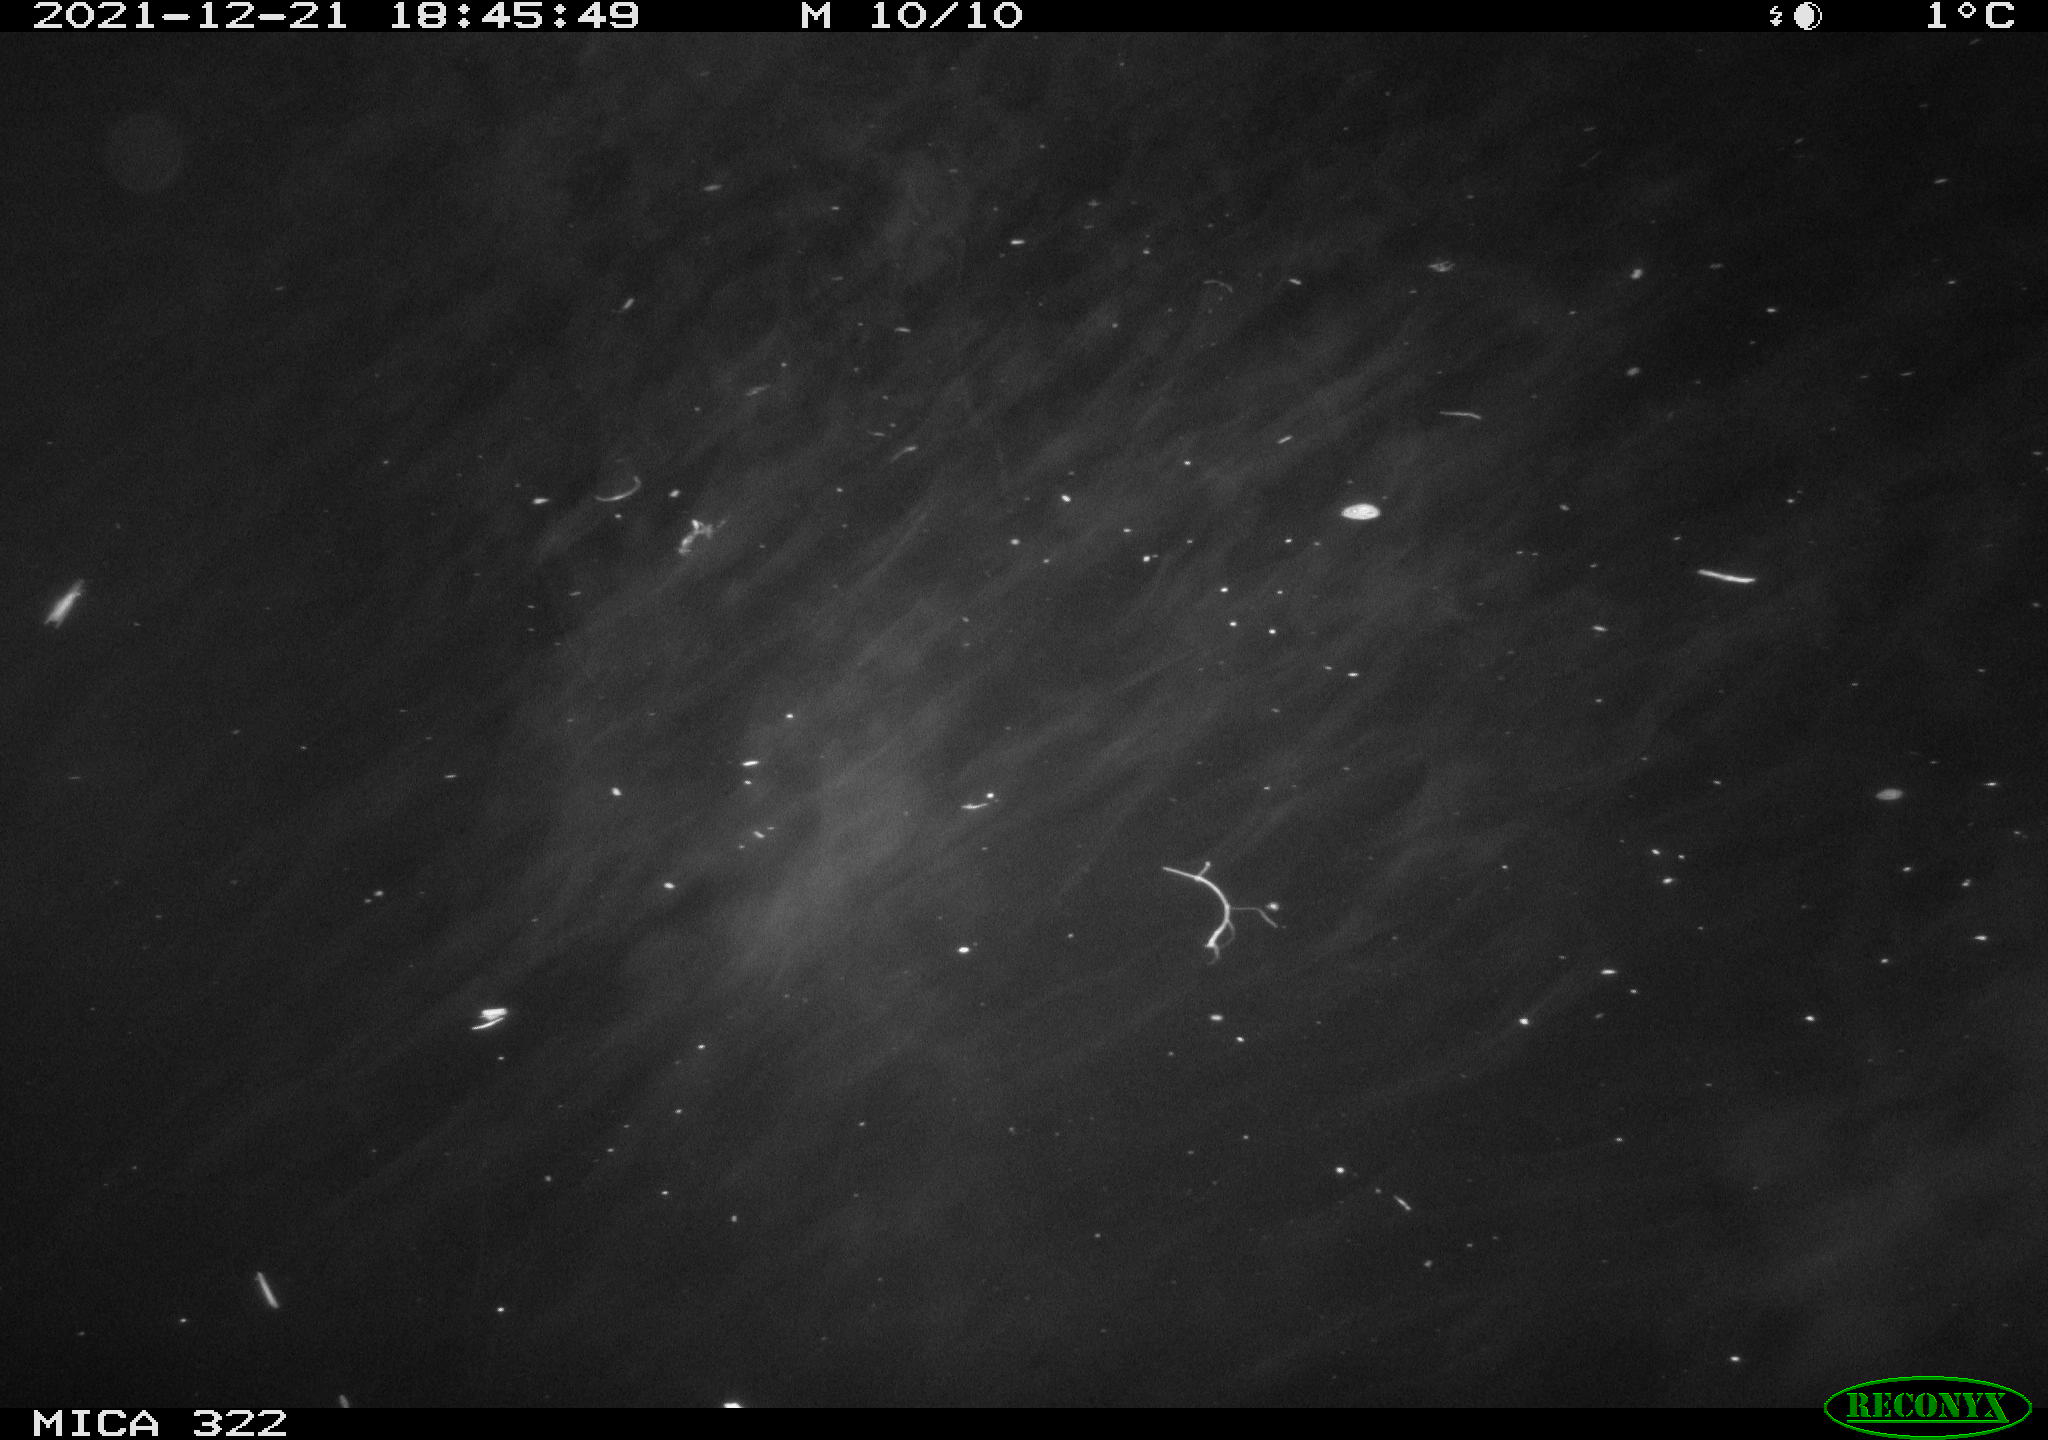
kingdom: Animalia
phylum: Chordata
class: Mammalia
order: Rodentia
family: Muridae
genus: Rattus
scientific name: Rattus norvegicus
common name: Brown rat
